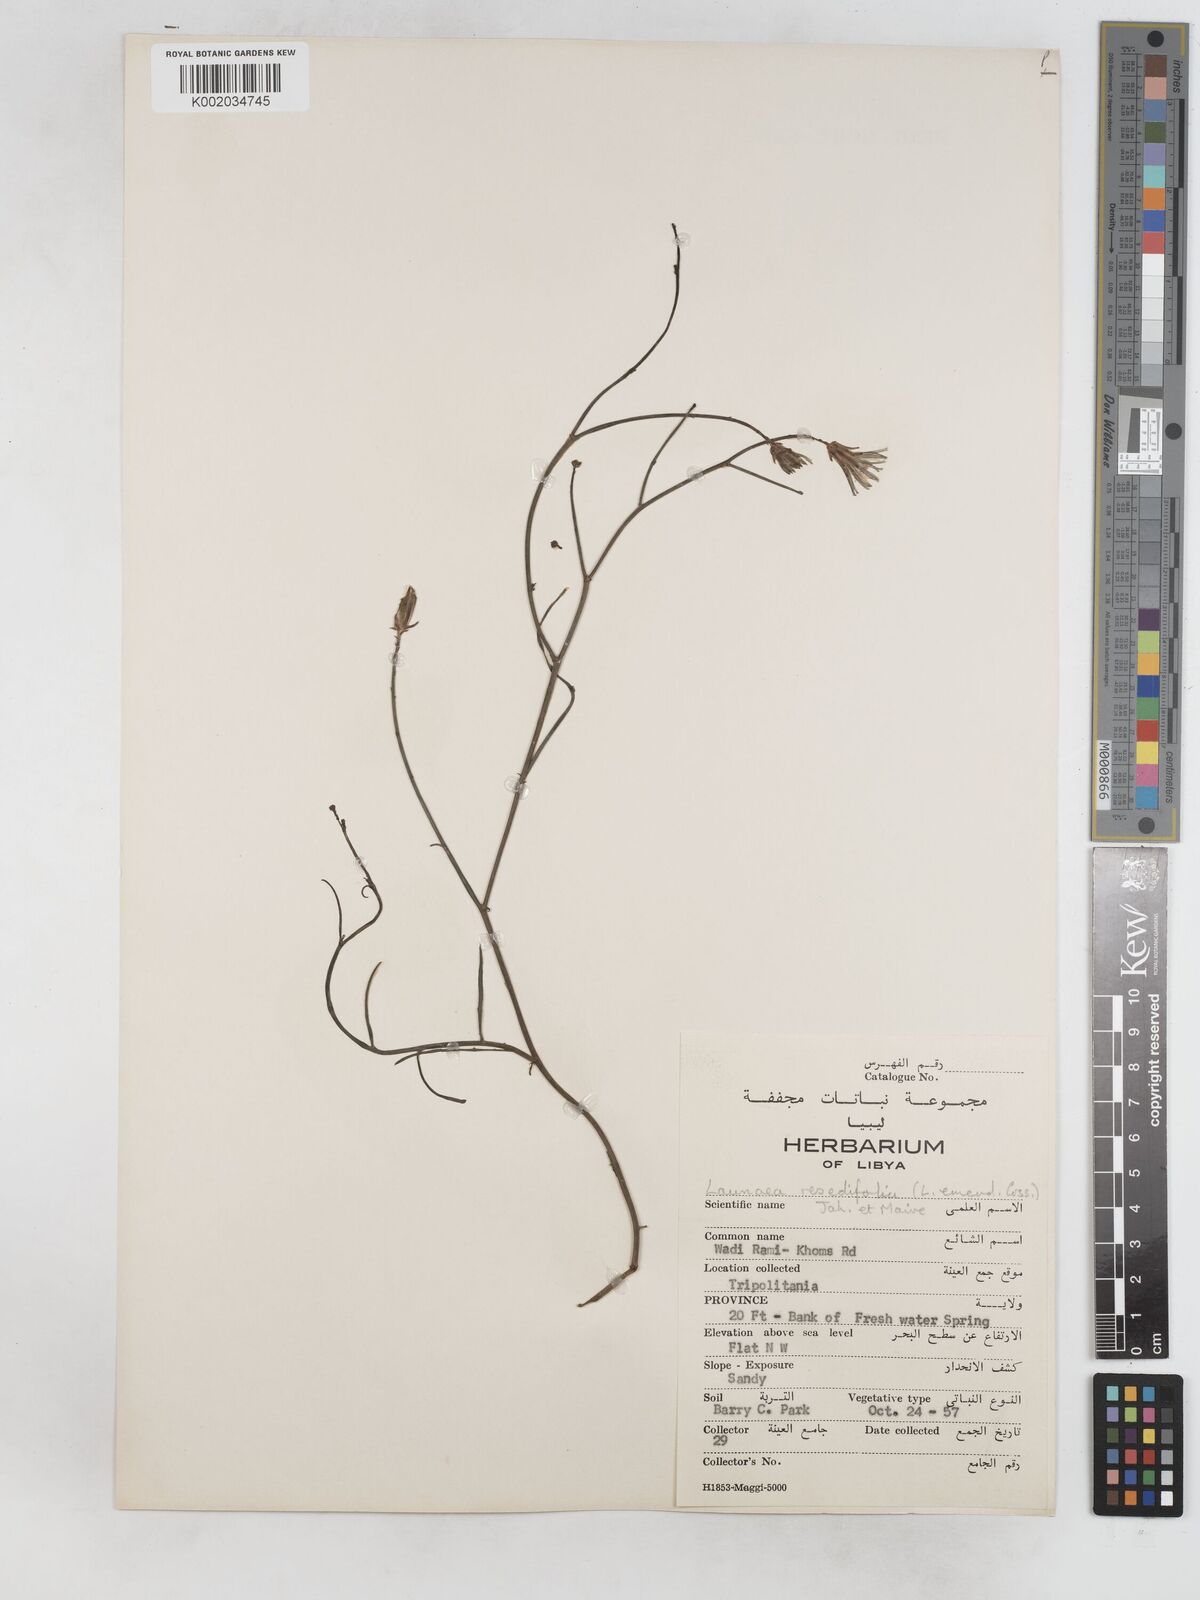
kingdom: Plantae
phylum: Tracheophyta
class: Magnoliopsida
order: Asterales
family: Asteraceae
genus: Launaea
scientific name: Launaea fragilis
